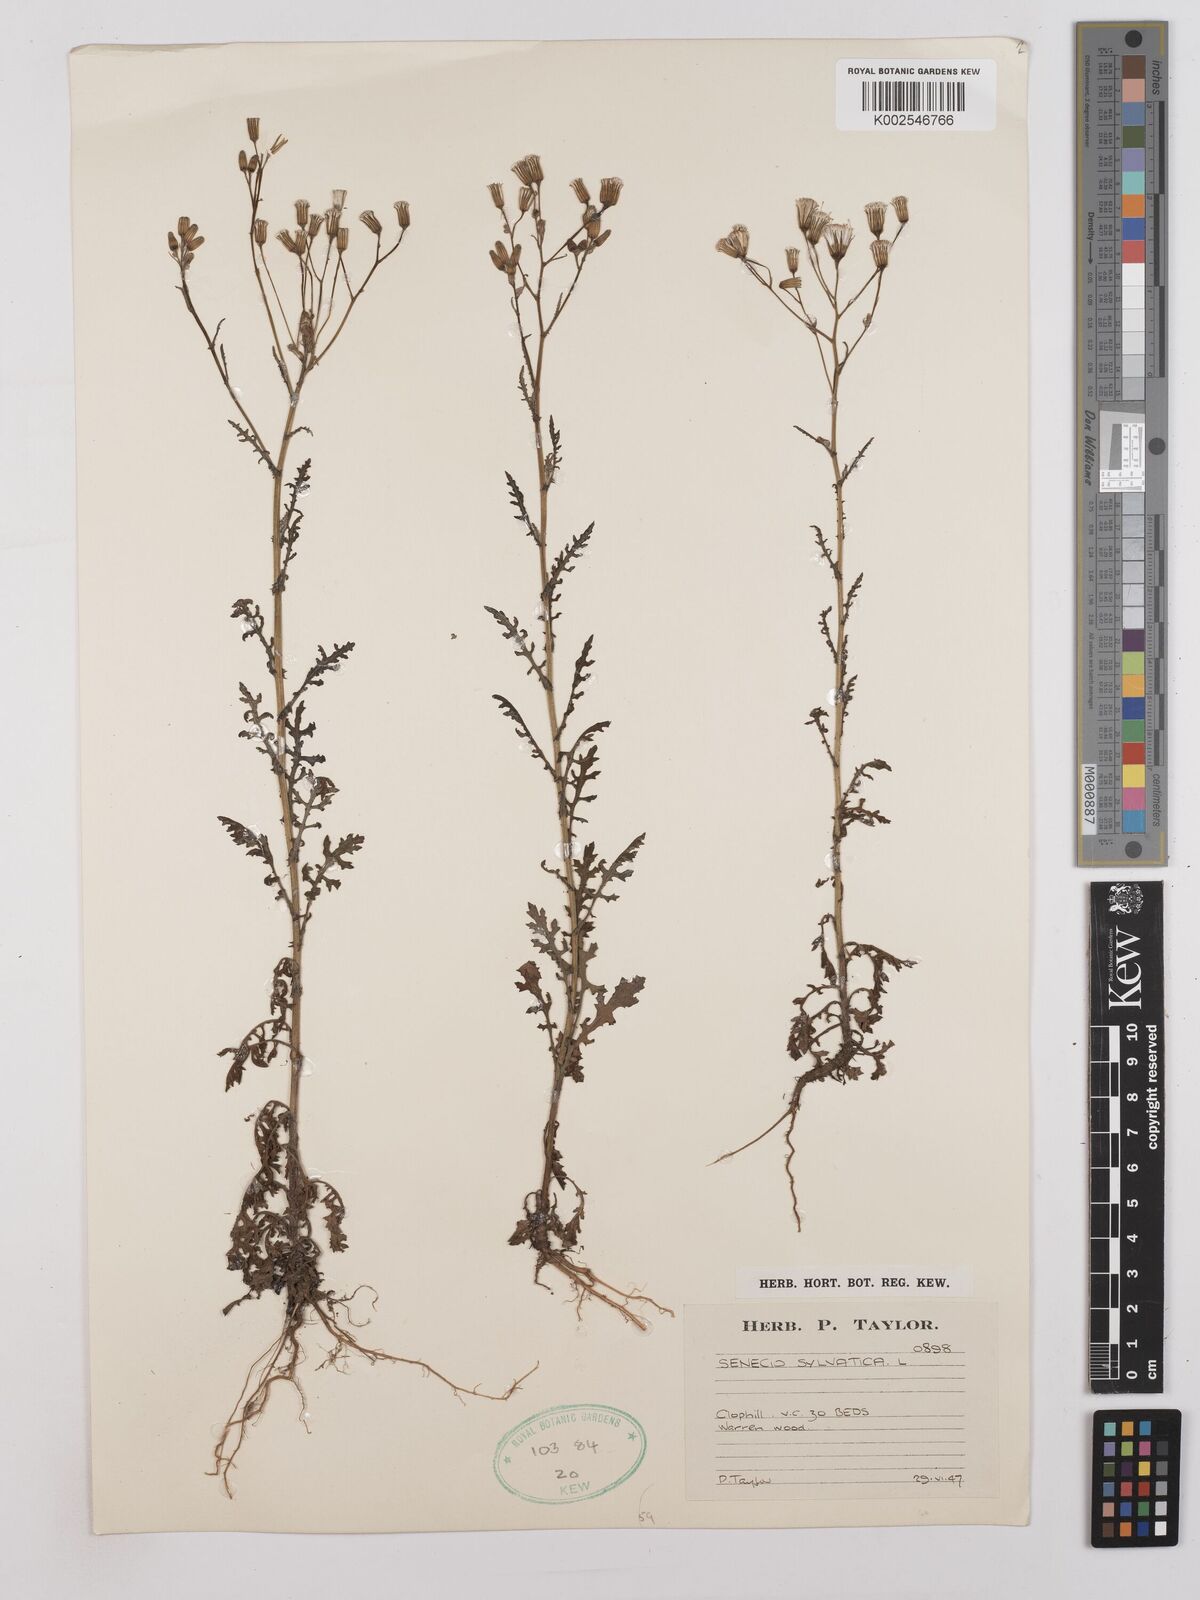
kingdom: Plantae
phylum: Tracheophyta
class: Magnoliopsida
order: Asterales
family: Asteraceae
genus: Senecio
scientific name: Senecio sylvaticus
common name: Woodland ragwort
